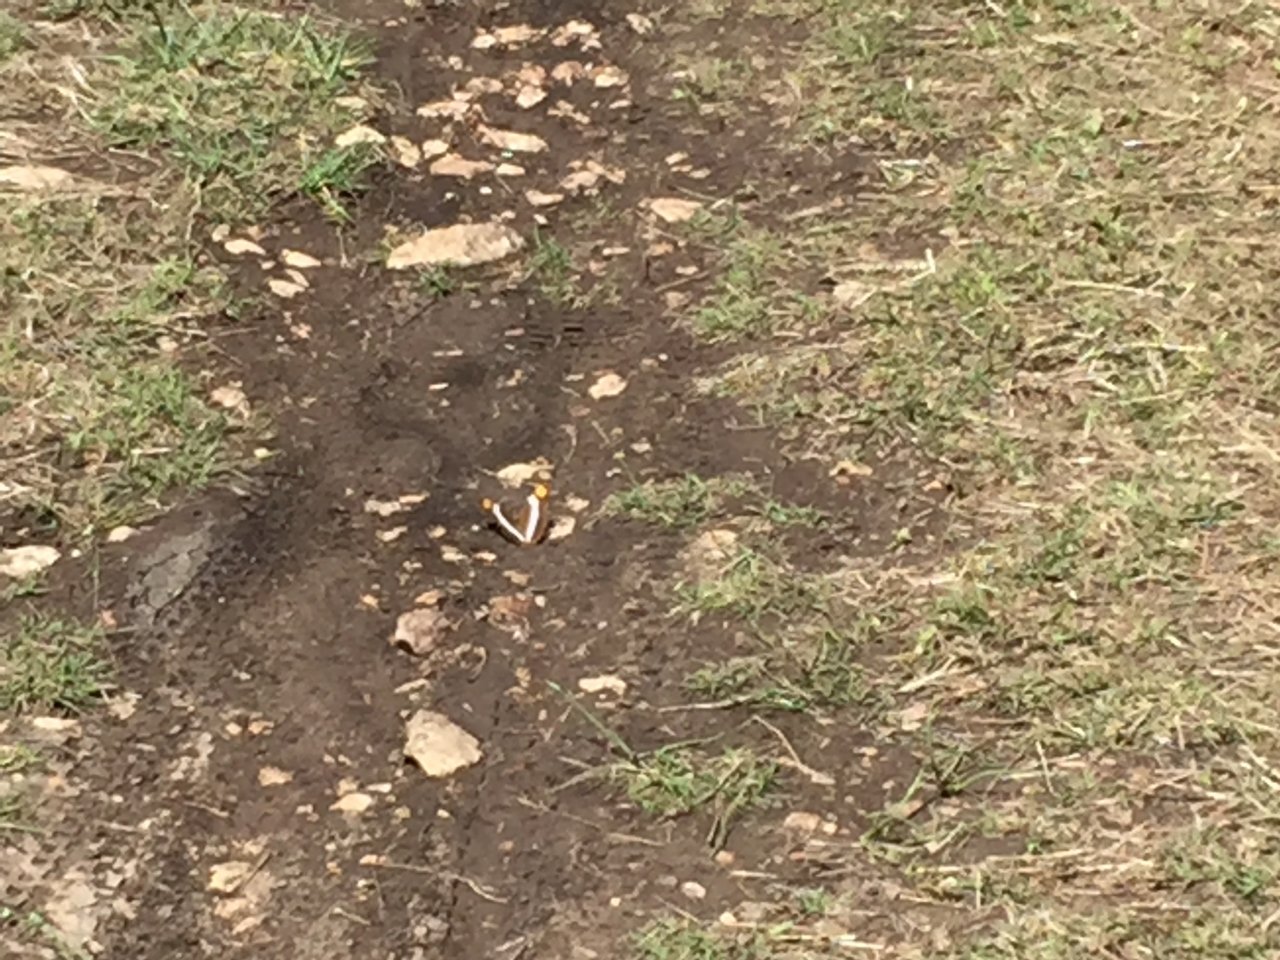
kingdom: Animalia
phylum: Arthropoda
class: Insecta
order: Lepidoptera
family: Nymphalidae
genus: Limenitis
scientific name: Limenitis fessonia
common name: Band-celled Sister
